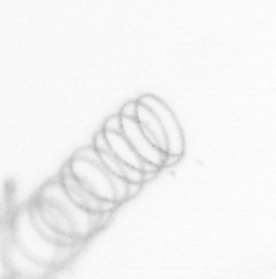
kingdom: Chromista
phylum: Ochrophyta
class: Bacillariophyceae
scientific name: Bacillariophyceae
